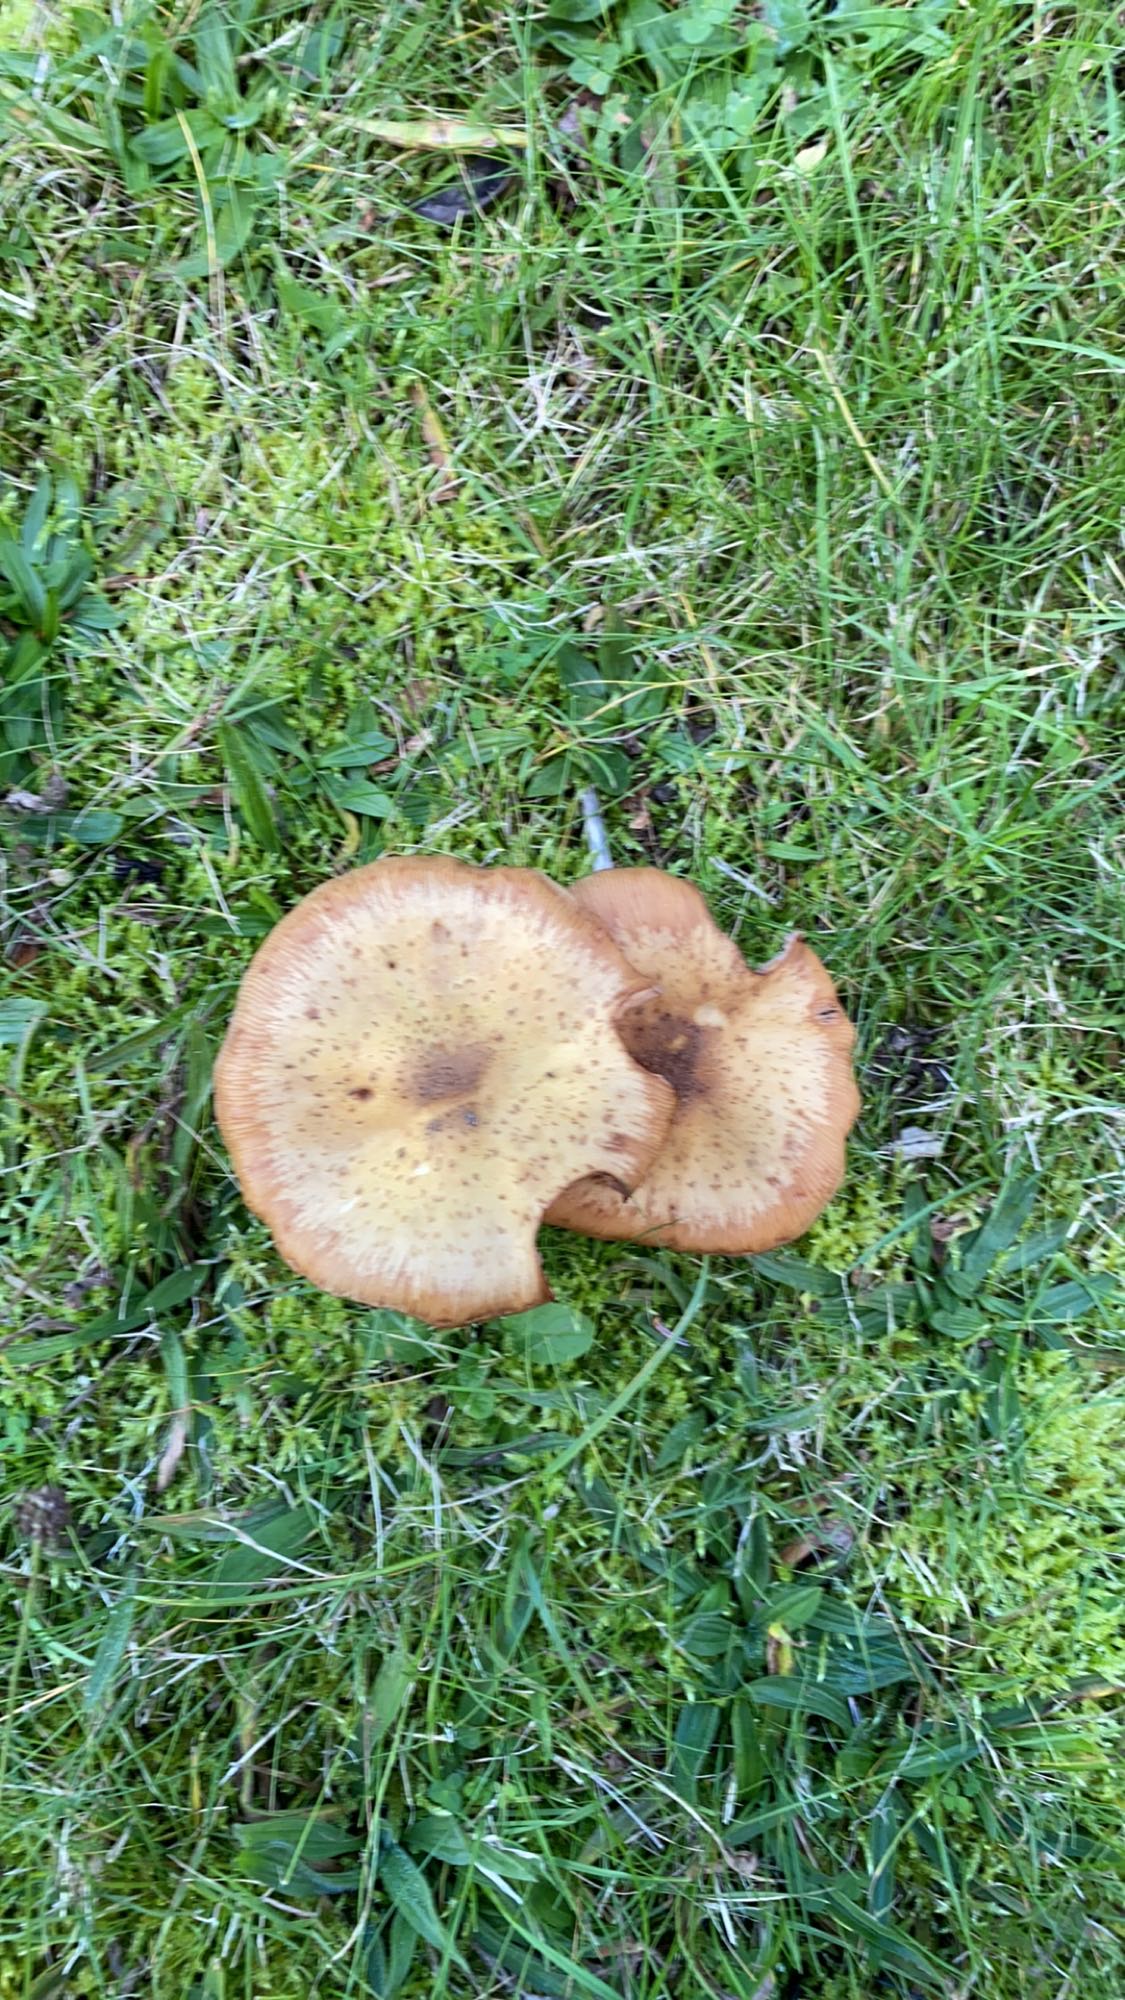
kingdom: Fungi
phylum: Basidiomycota
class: Agaricomycetes
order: Agaricales
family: Physalacriaceae
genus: Armillaria
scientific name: Armillaria
